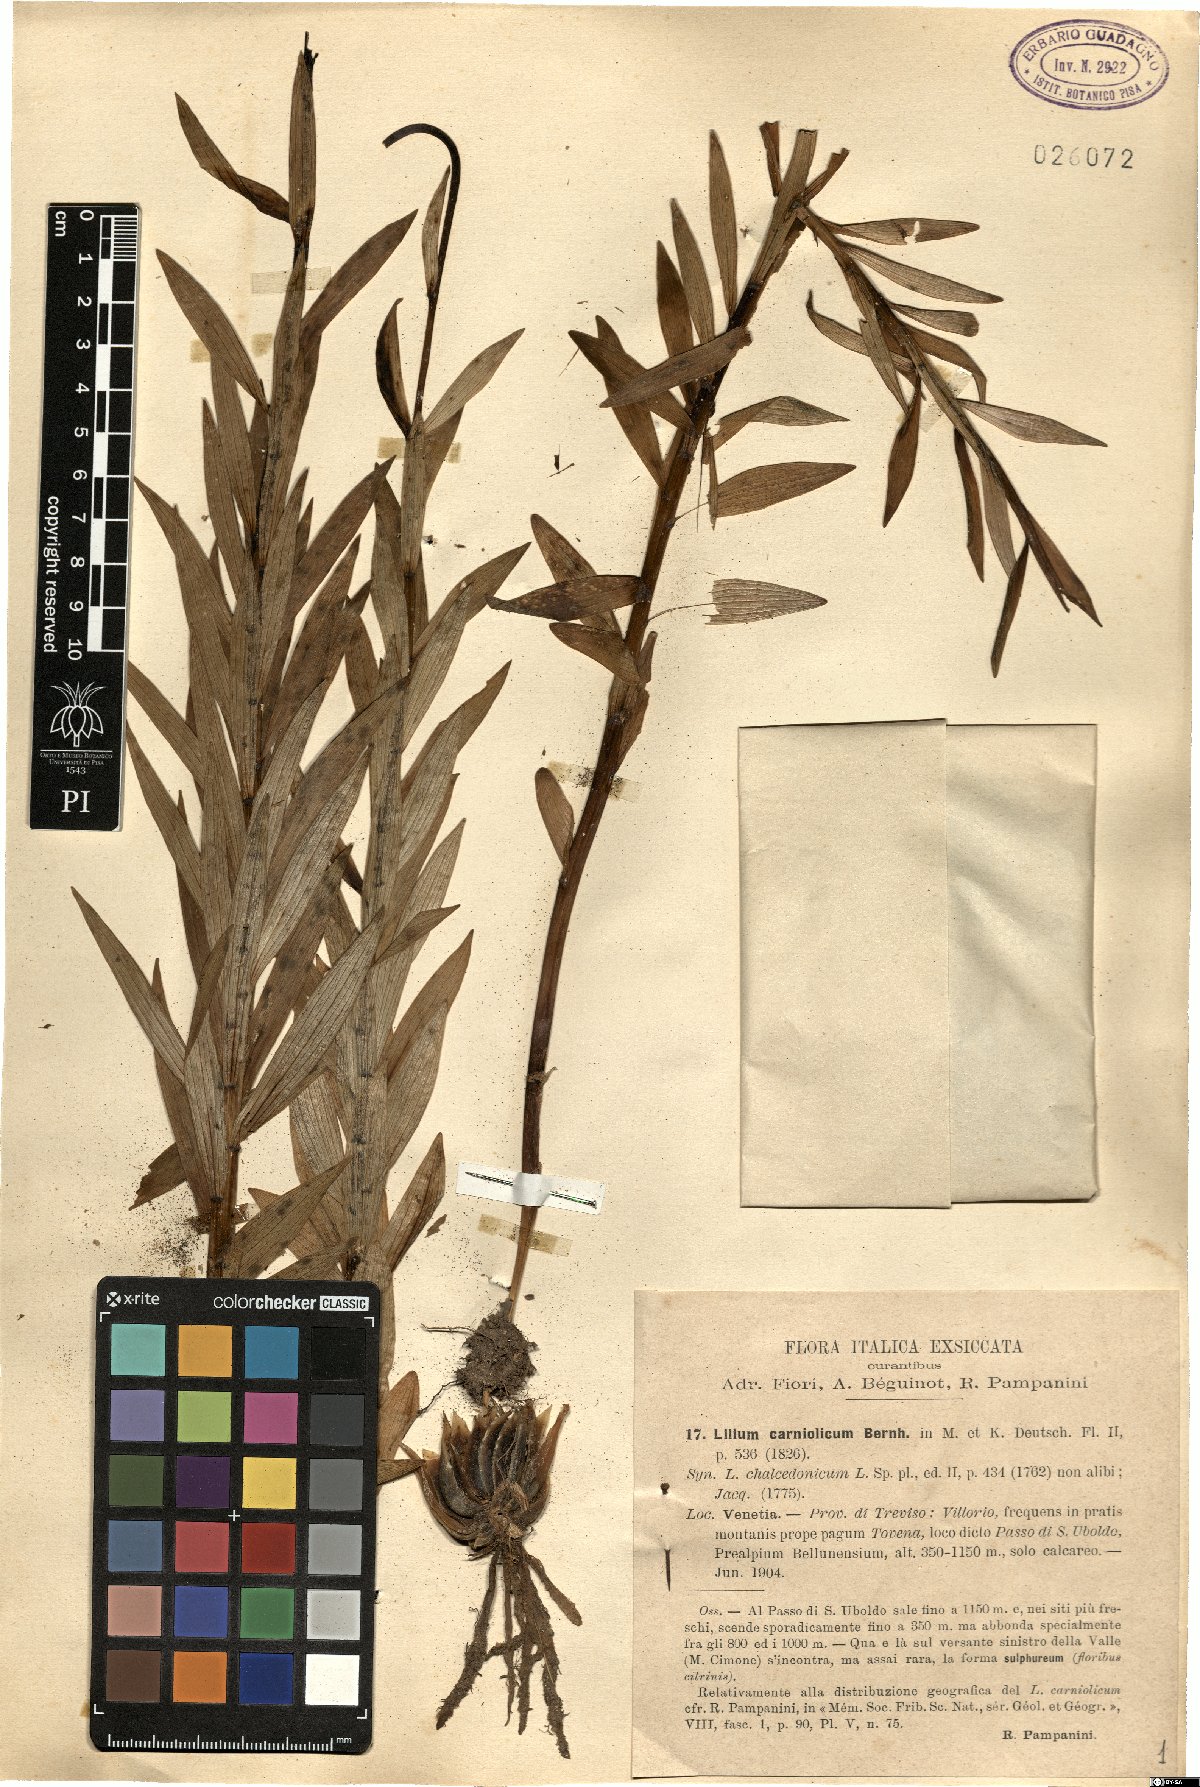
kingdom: Plantae
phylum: Tracheophyta
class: Liliopsida
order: Liliales
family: Liliaceae
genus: Lilium
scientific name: Lilium carniolicum
